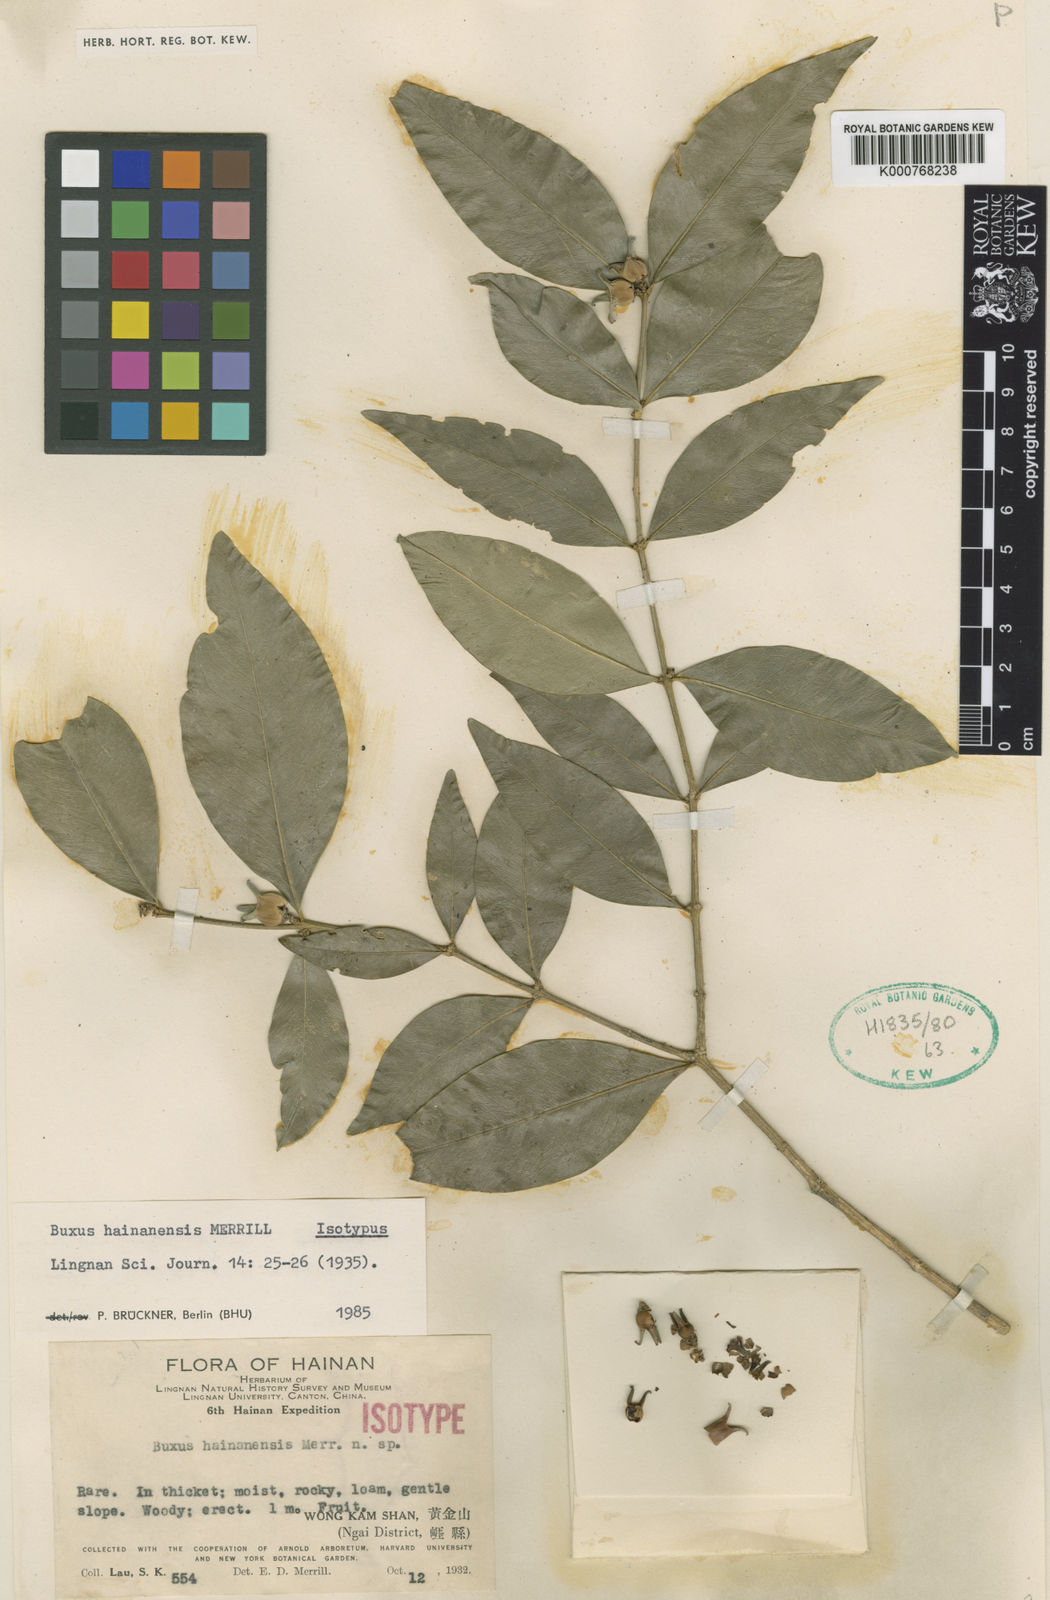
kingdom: Plantae
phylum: Tracheophyta
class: Magnoliopsida
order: Buxales
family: Buxaceae
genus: Buxus
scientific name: Buxus hainanensis
